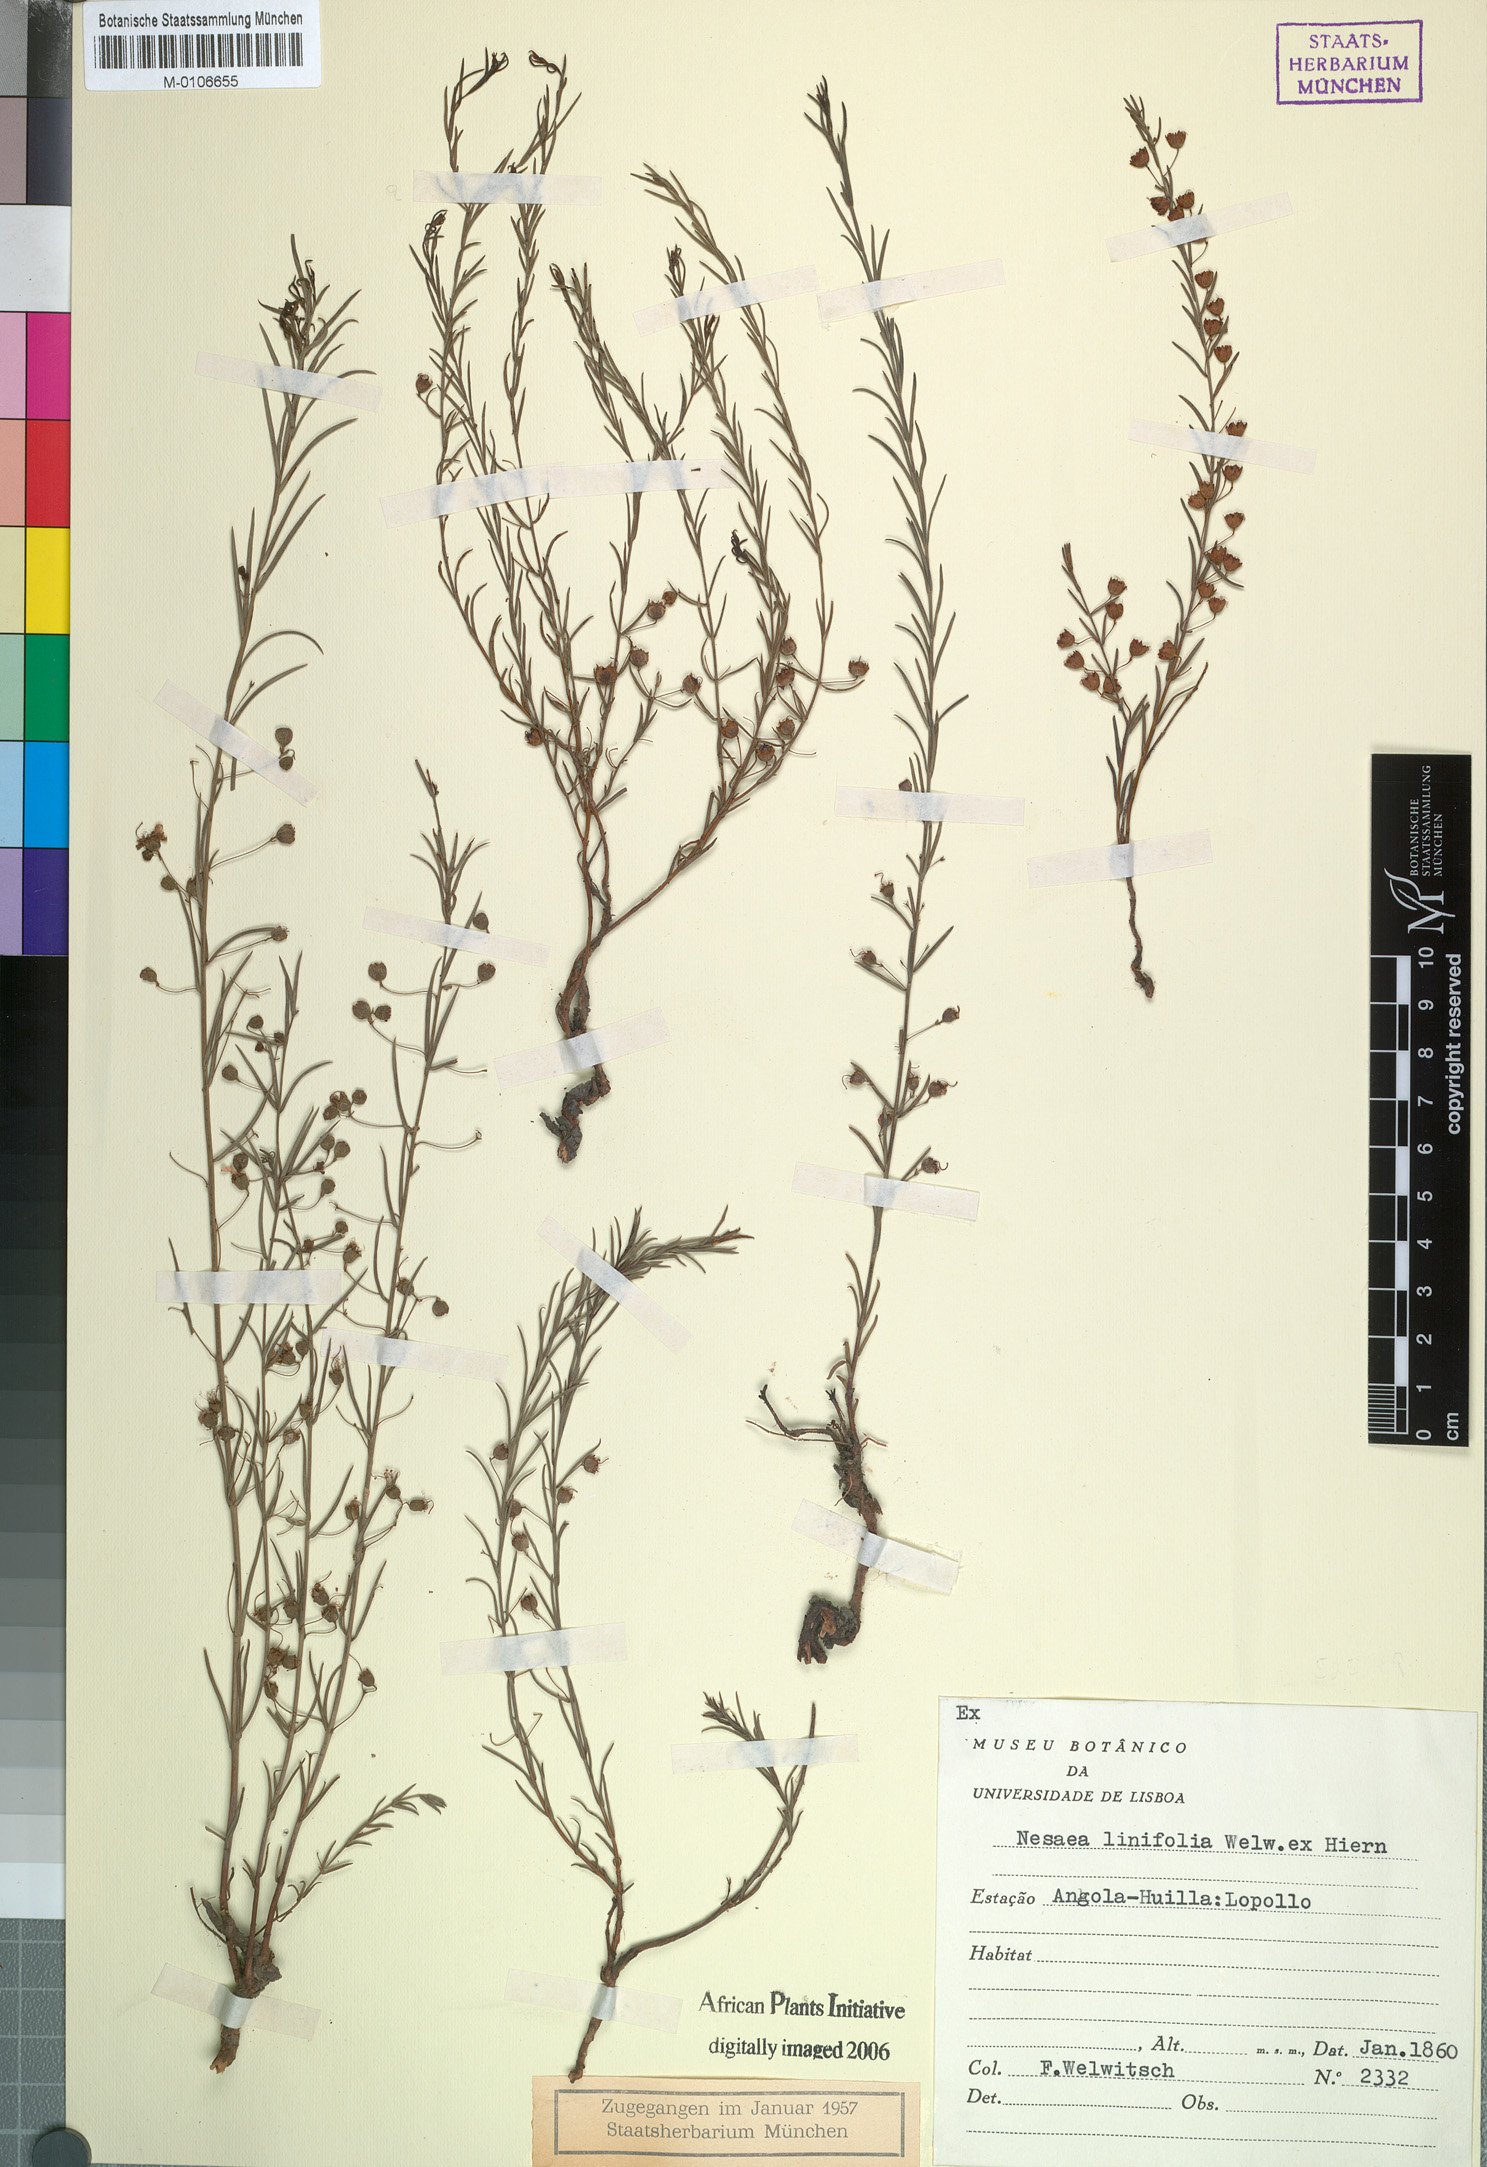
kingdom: Plantae
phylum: Tracheophyta
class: Magnoliopsida
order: Myrtales
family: Lythraceae
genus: Ammannia
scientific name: Ammannia linifolia
